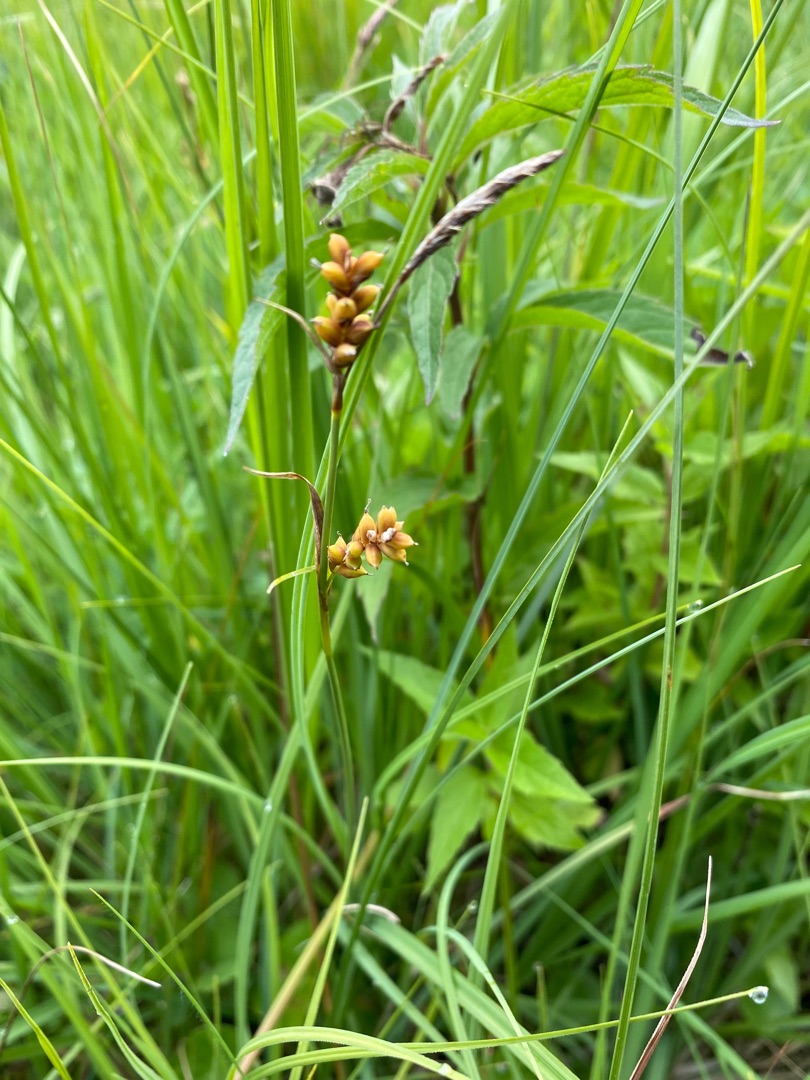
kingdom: Plantae
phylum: Tracheophyta
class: Liliopsida
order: Poales
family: Cyperaceae
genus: Carex
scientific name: Carex panicea
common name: Hirse-star
